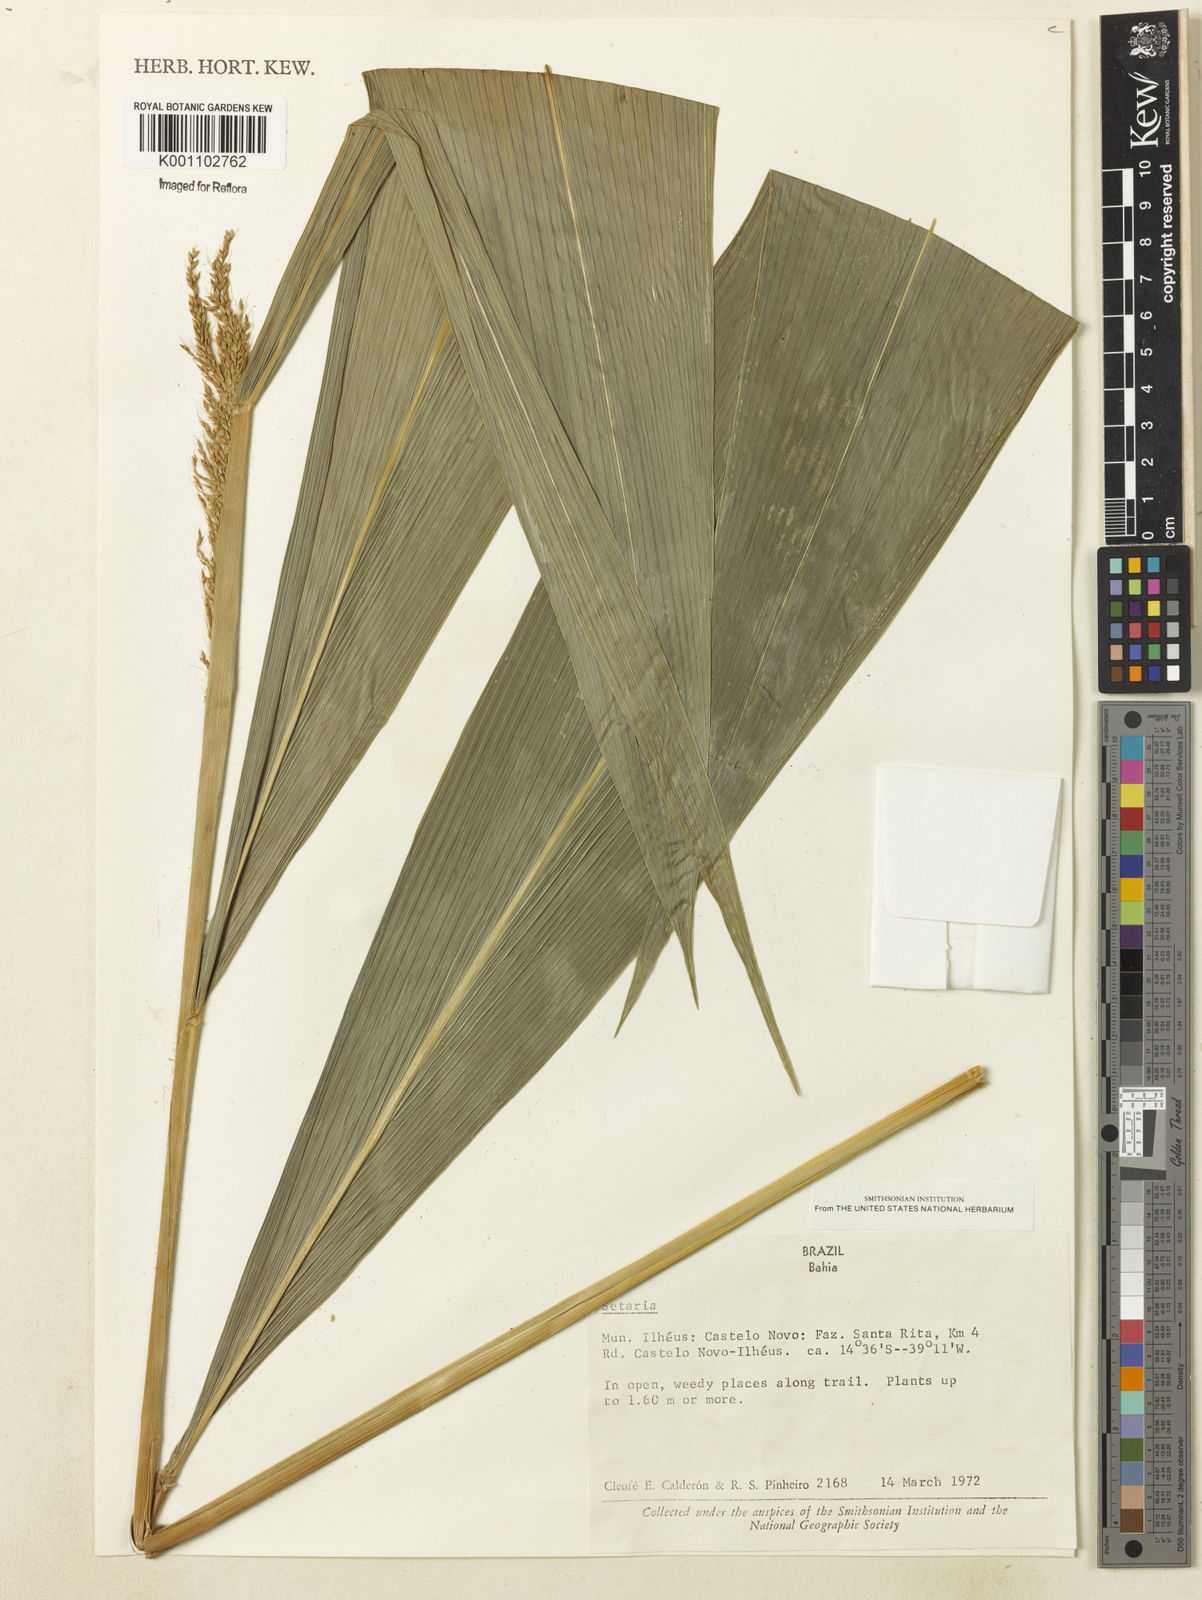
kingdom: Plantae
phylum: Tracheophyta
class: Liliopsida
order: Poales
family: Poaceae
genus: Setaria
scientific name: Setaria poiretiana
